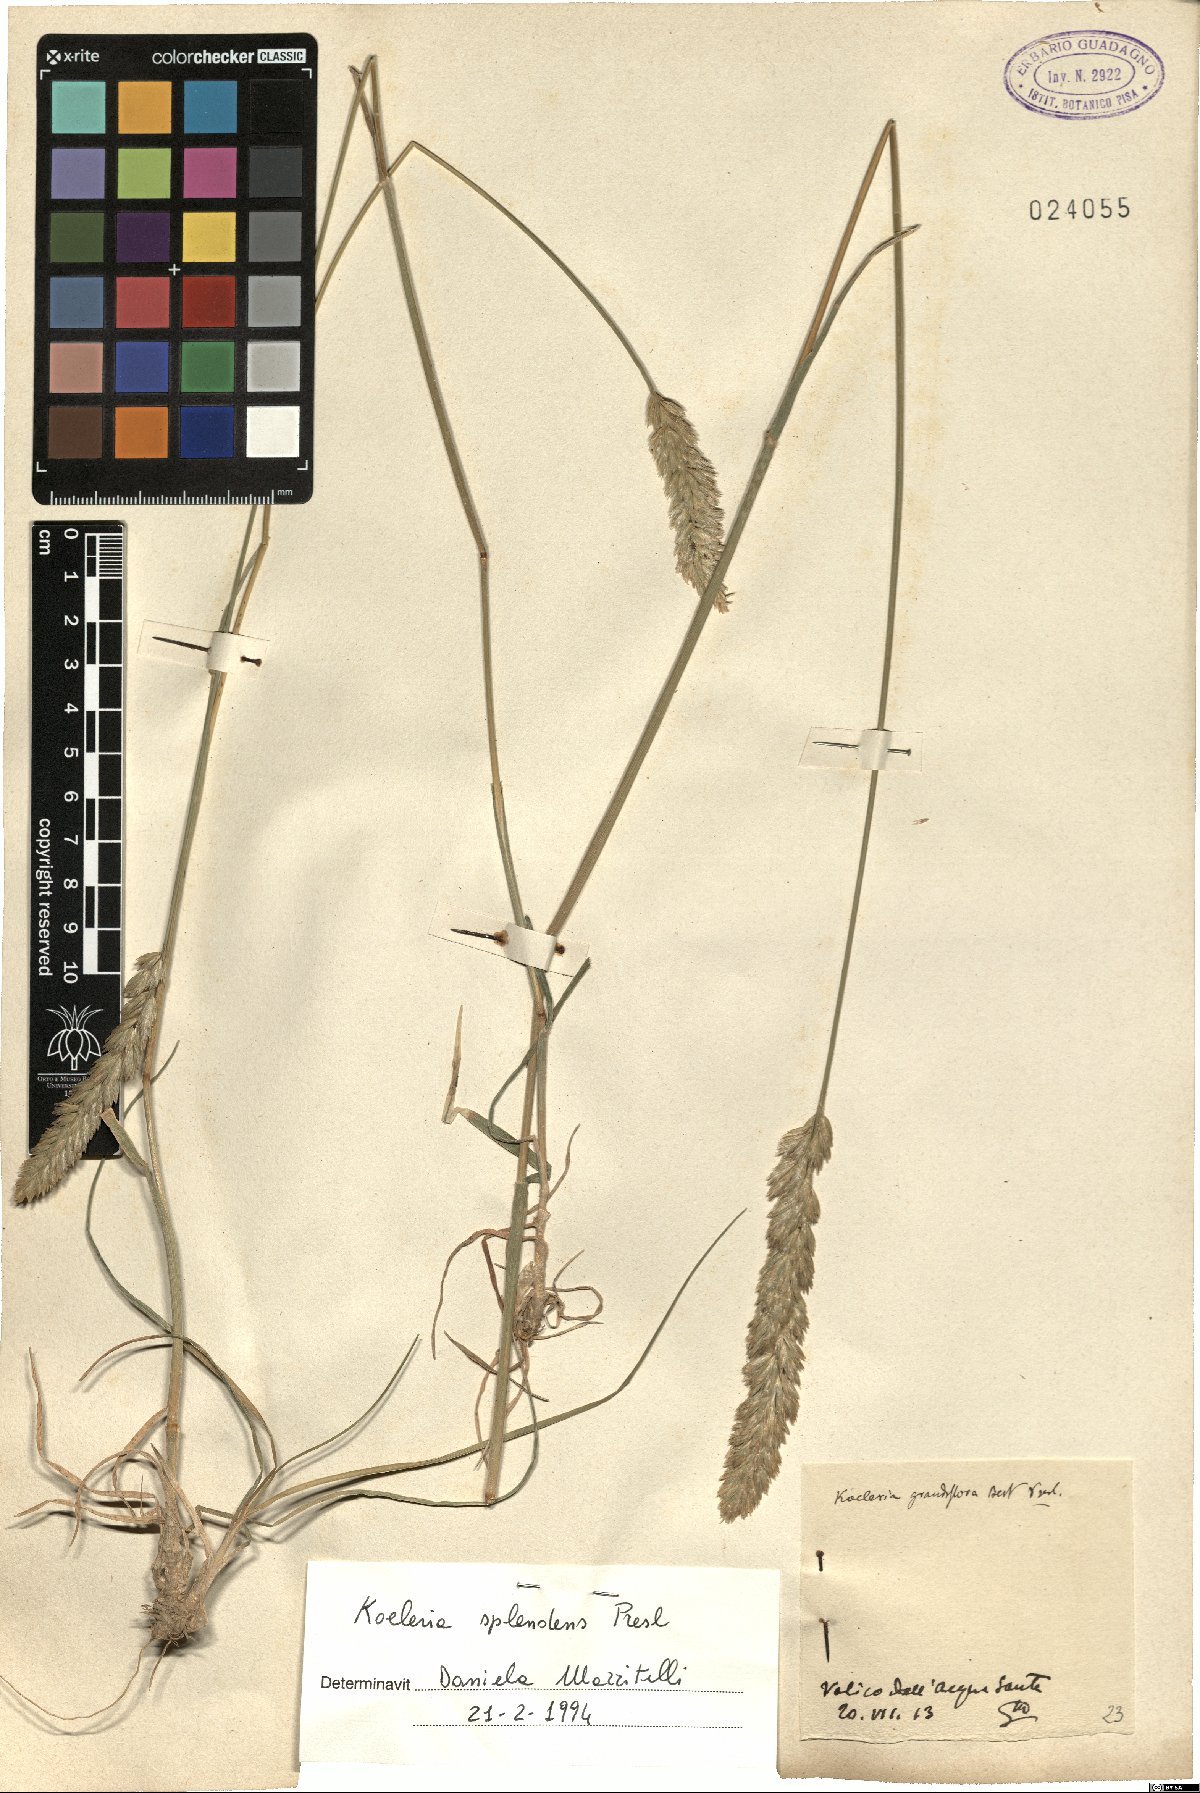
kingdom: Plantae
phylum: Tracheophyta
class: Liliopsida
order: Poales
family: Poaceae
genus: Koeleria
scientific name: Koeleria splendens
